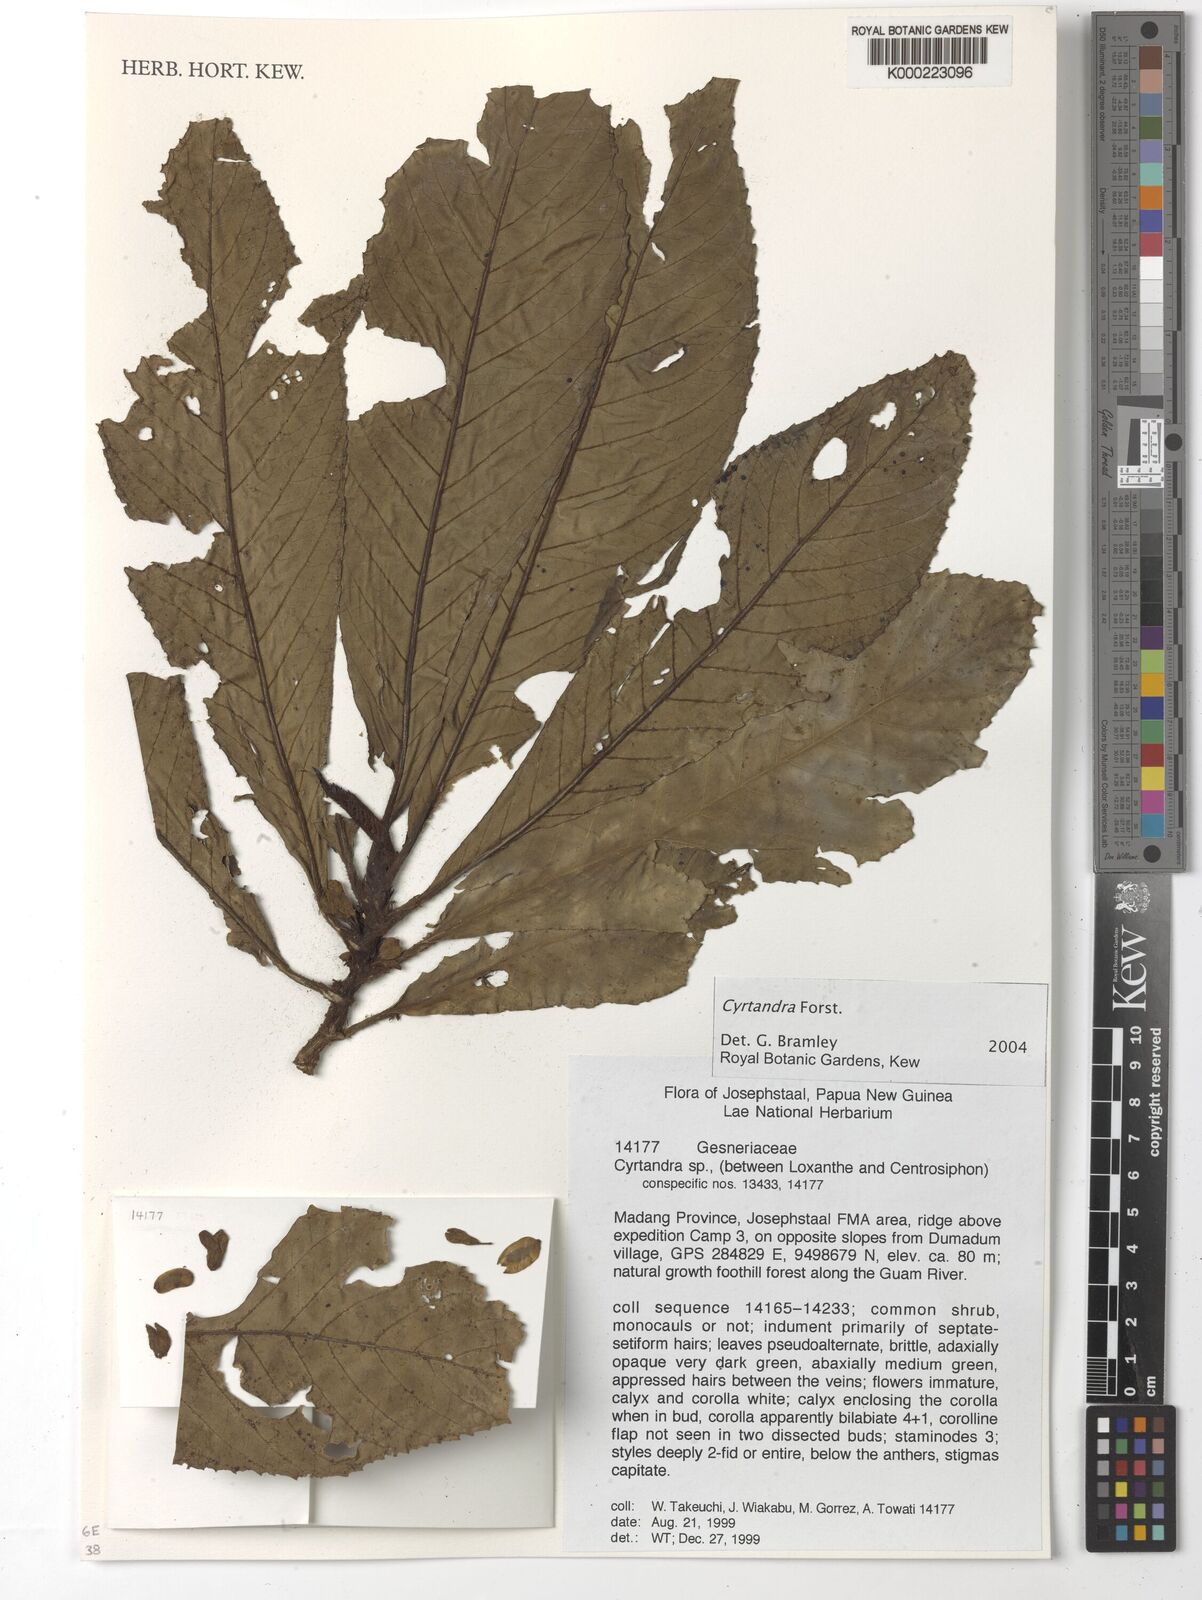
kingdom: Plantae
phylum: Tracheophyta
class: Magnoliopsida
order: Lamiales
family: Gesneriaceae
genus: Cyrtandra
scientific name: Cyrtandra
